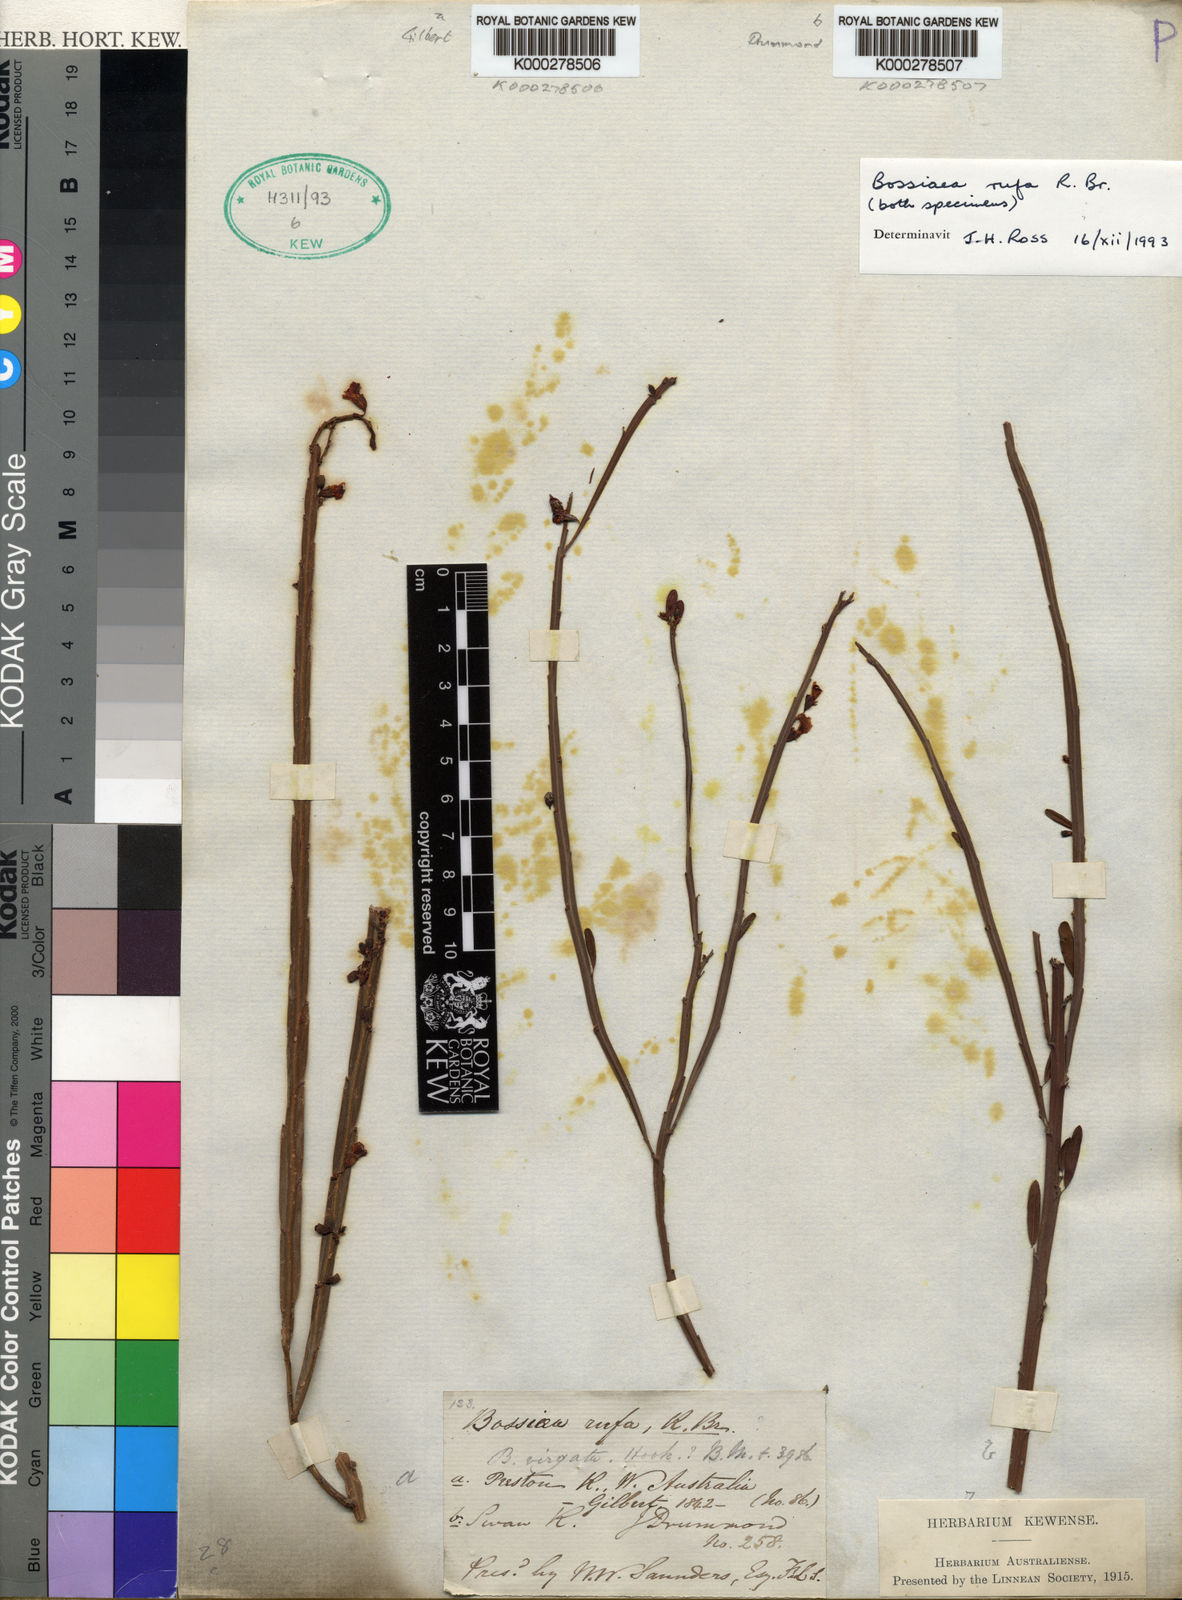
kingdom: Plantae
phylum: Tracheophyta
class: Magnoliopsida
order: Fabales
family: Fabaceae
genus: Bossiaea
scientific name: Bossiaea rufa
